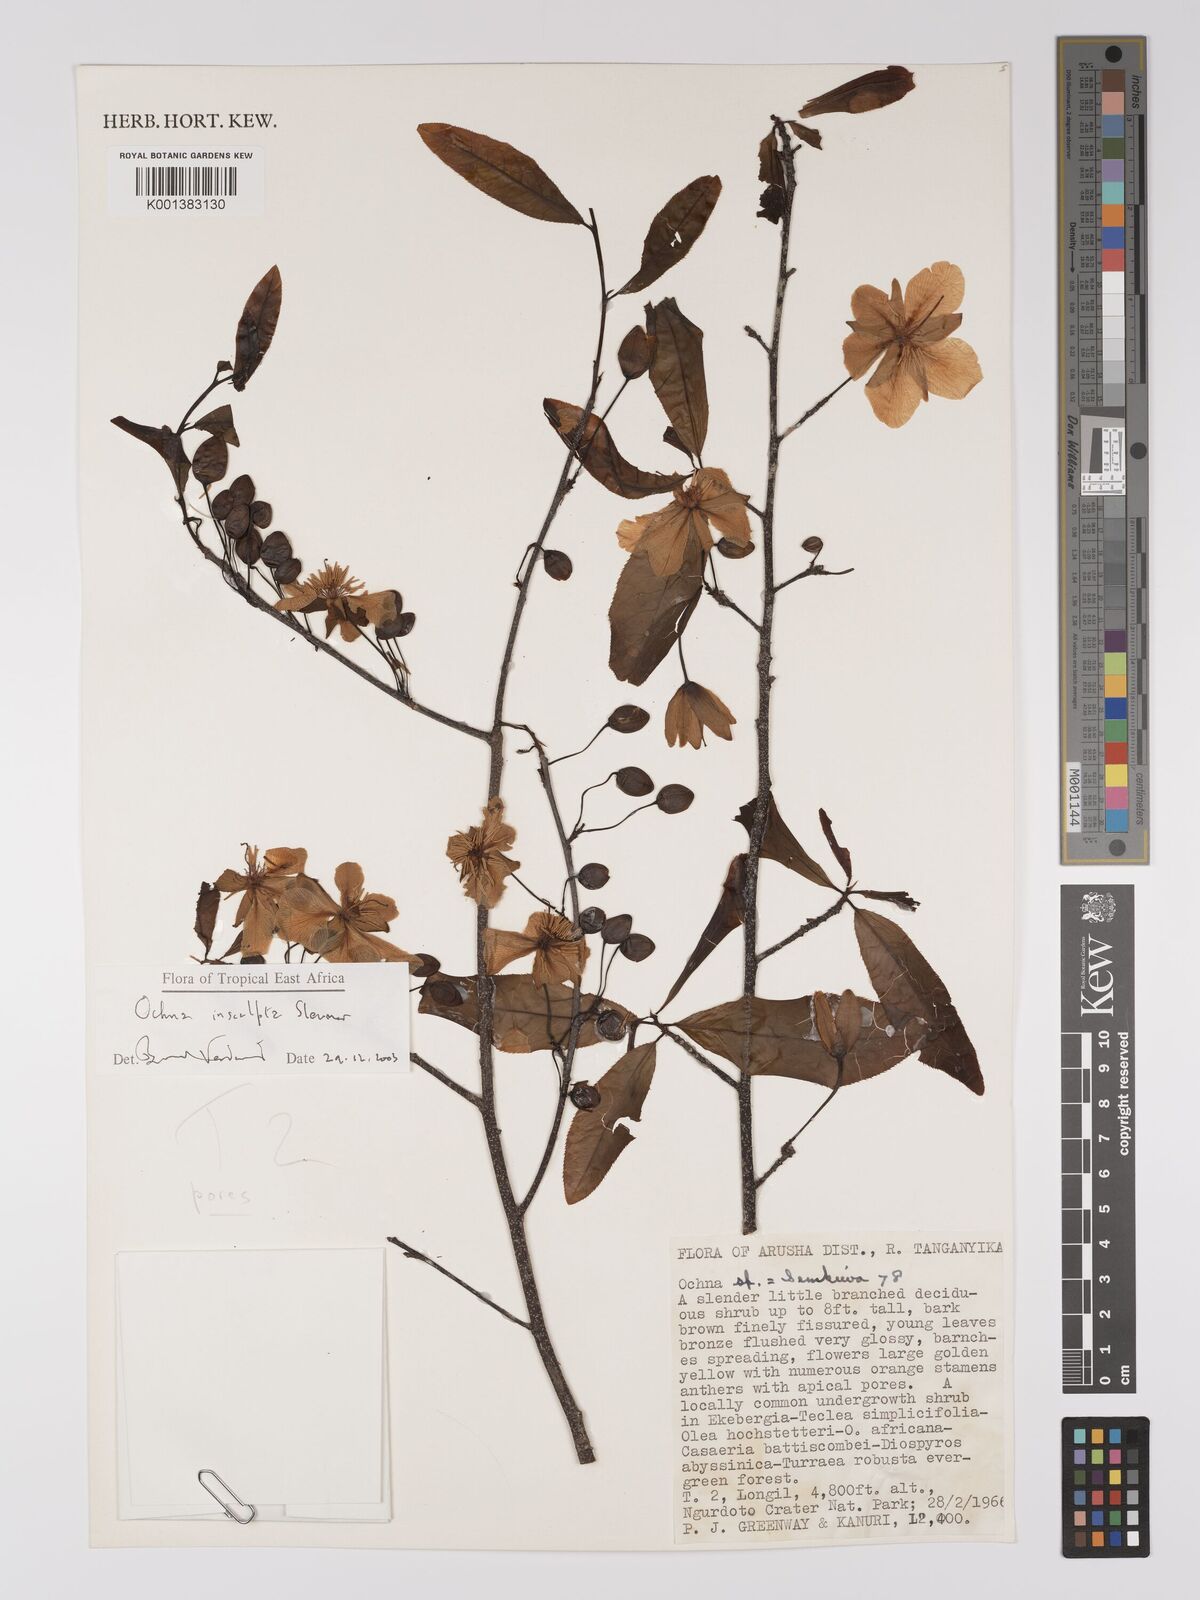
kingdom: Plantae
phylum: Tracheophyta
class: Magnoliopsida
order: Malpighiales
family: Ochnaceae
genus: Ochna
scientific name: Ochna insculpta
